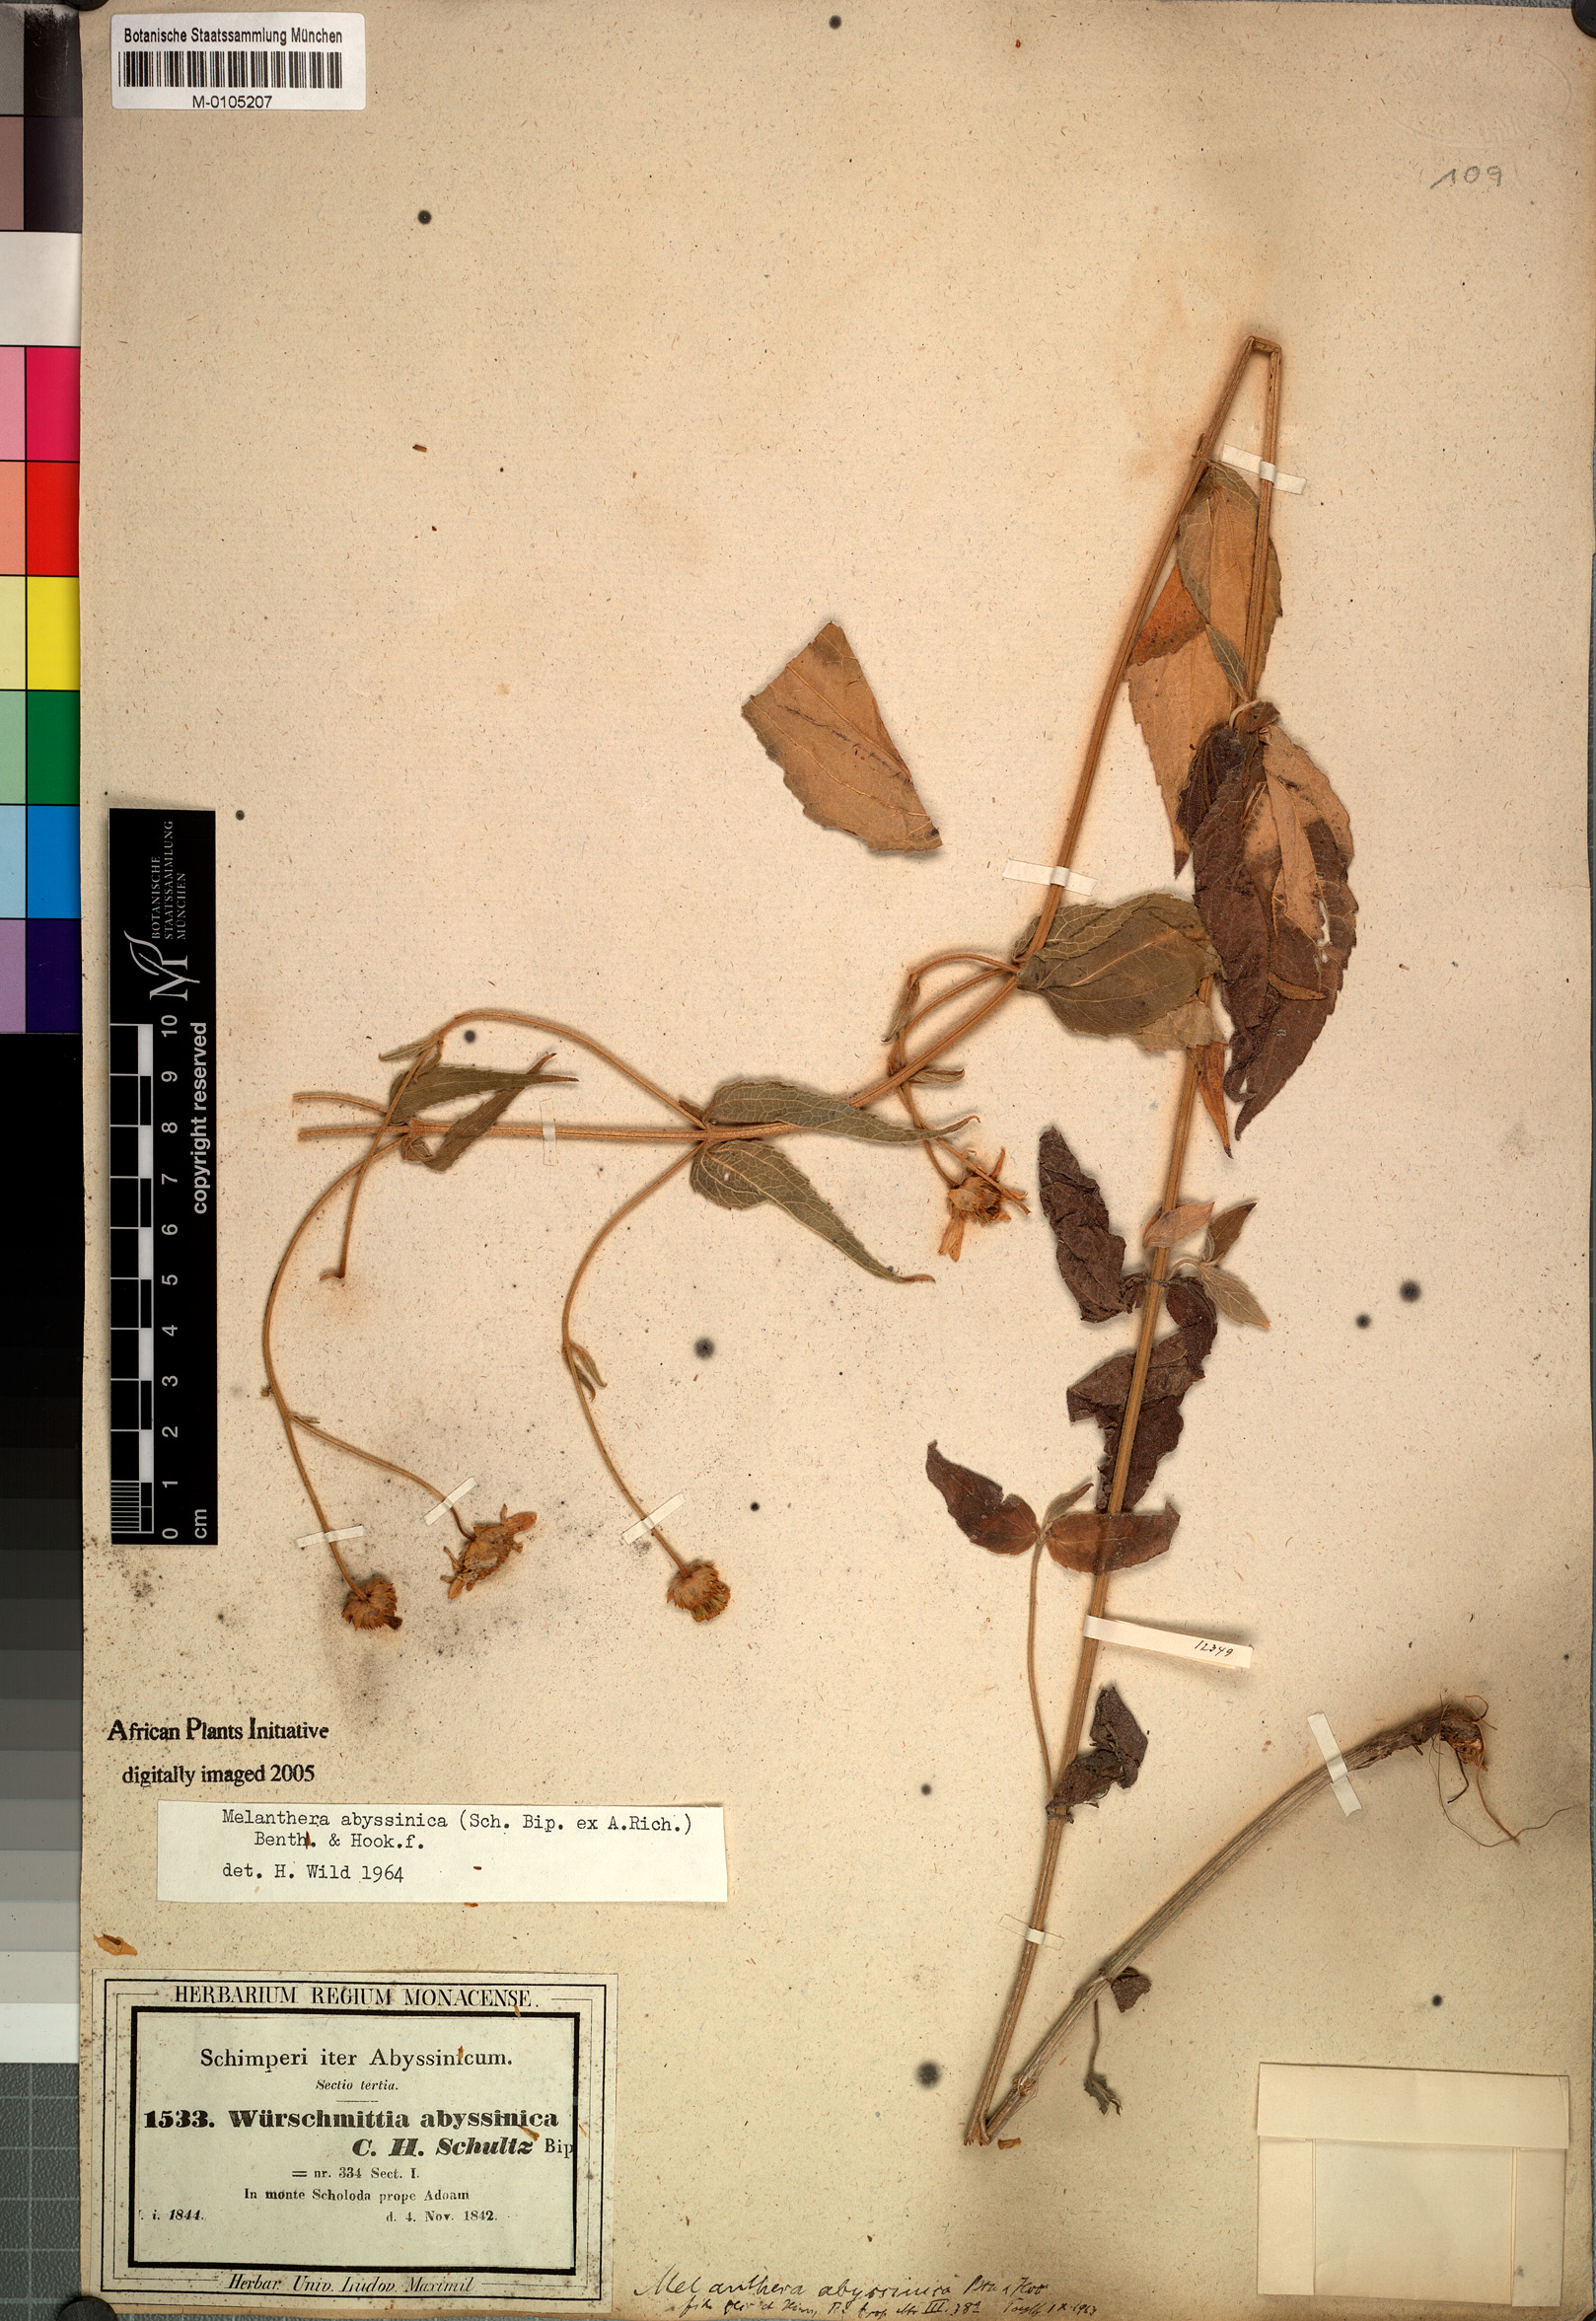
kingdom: Plantae
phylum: Tracheophyta
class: Magnoliopsida
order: Asterales
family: Asteraceae
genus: Lipotriche
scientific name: Lipotriche abyssinica
